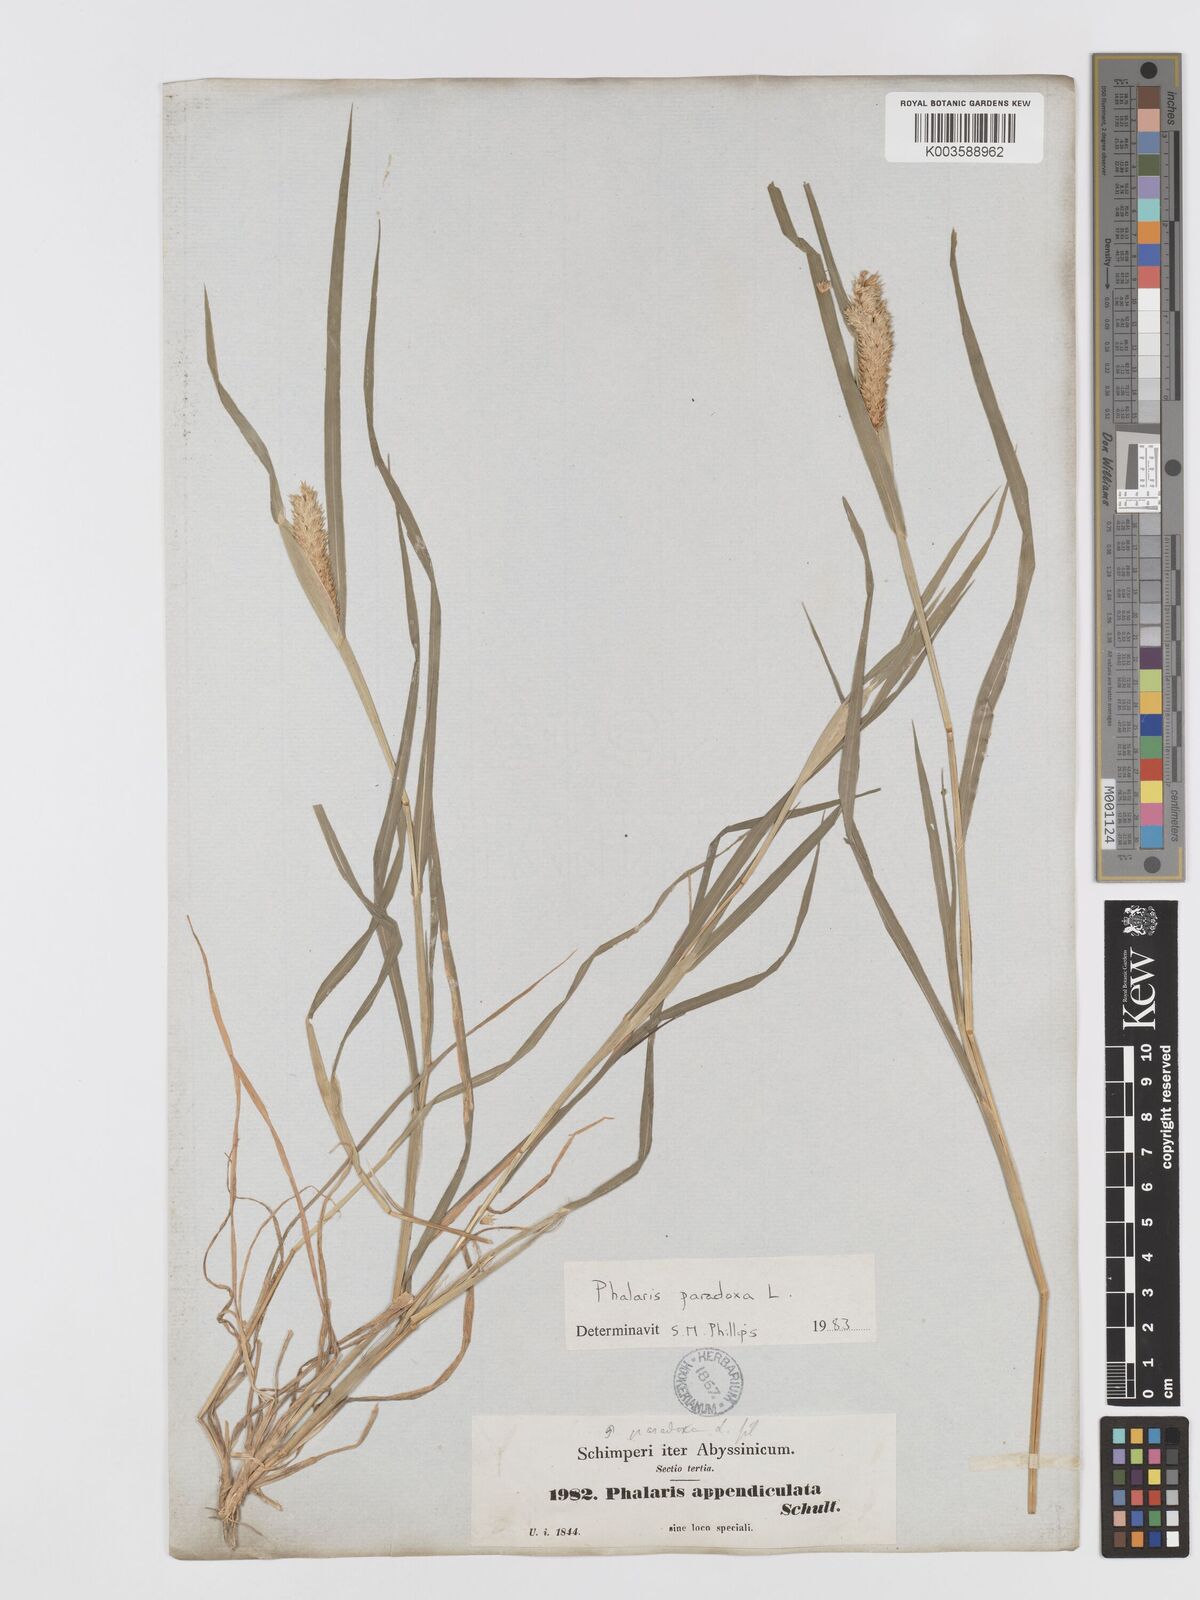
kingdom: Plantae
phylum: Tracheophyta
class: Liliopsida
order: Poales
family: Poaceae
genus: Phalaris
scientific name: Phalaris paradoxa
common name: Awned canary-grass
